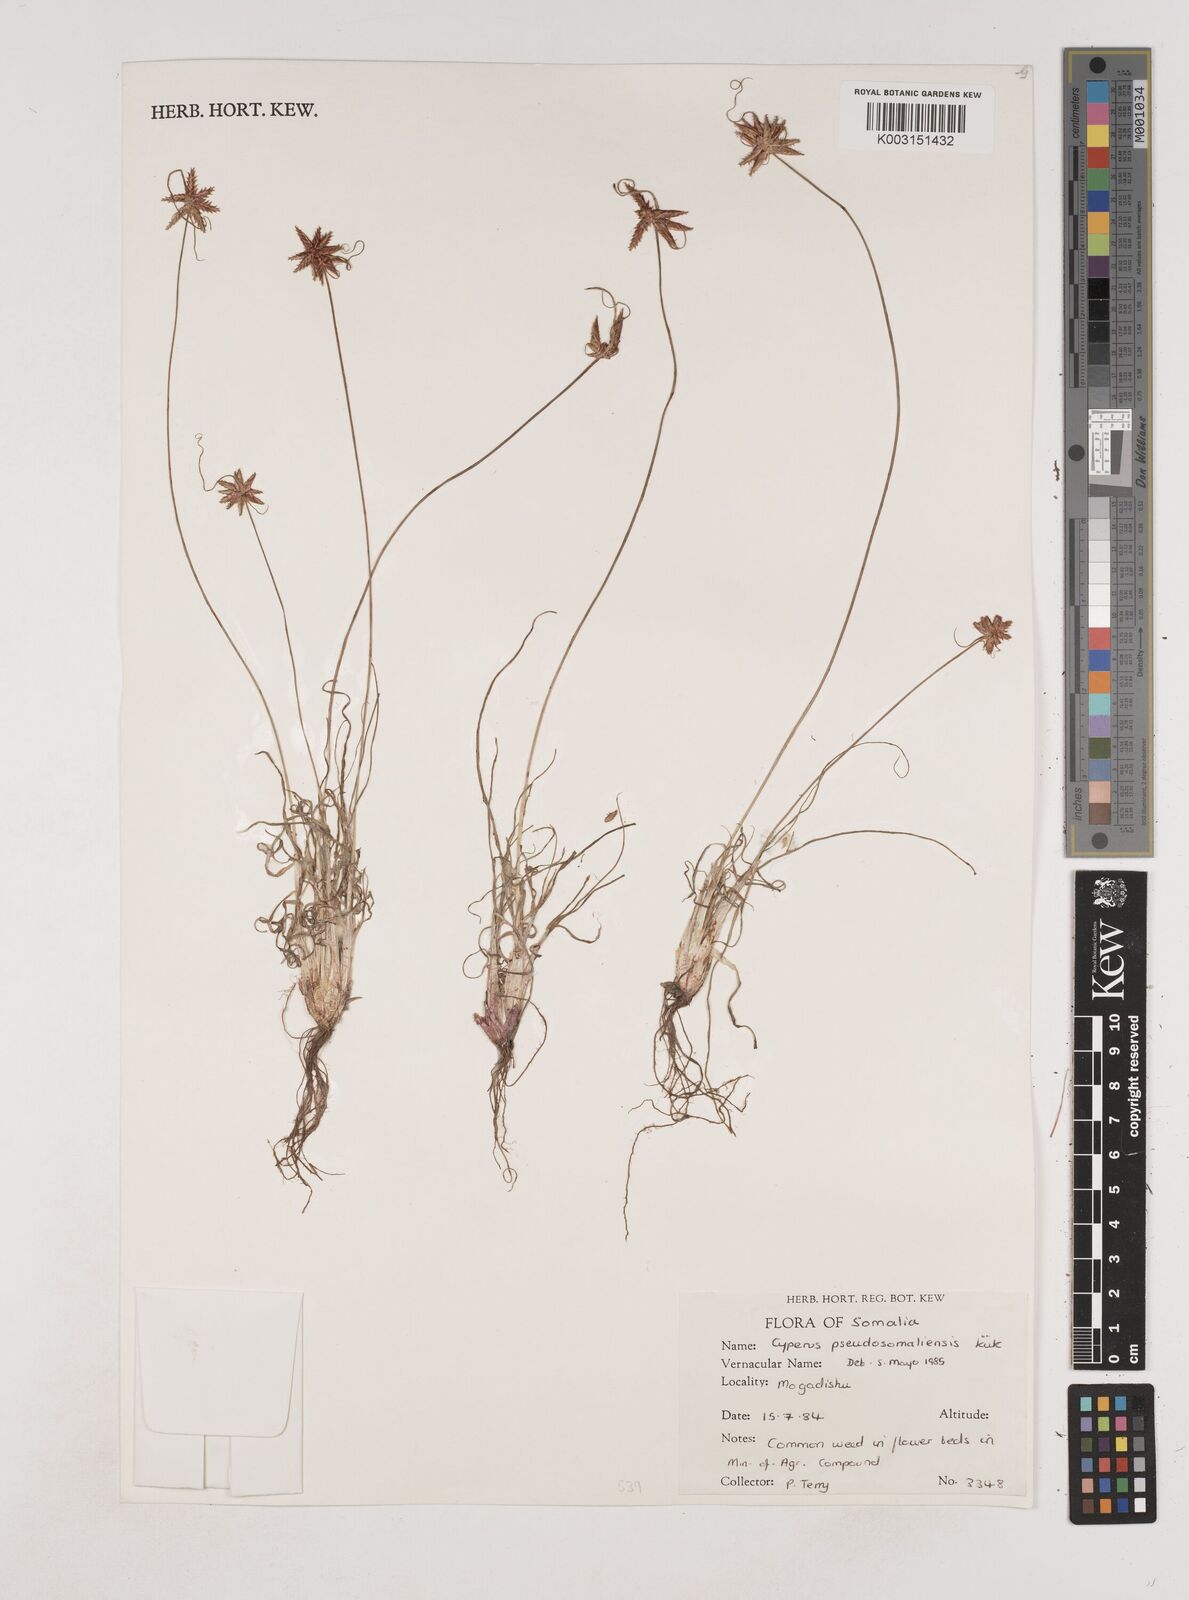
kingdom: Plantae
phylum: Tracheophyta
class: Liliopsida
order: Poales
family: Cyperaceae
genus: Cyperus
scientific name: Cyperus pseudosomaliensis
